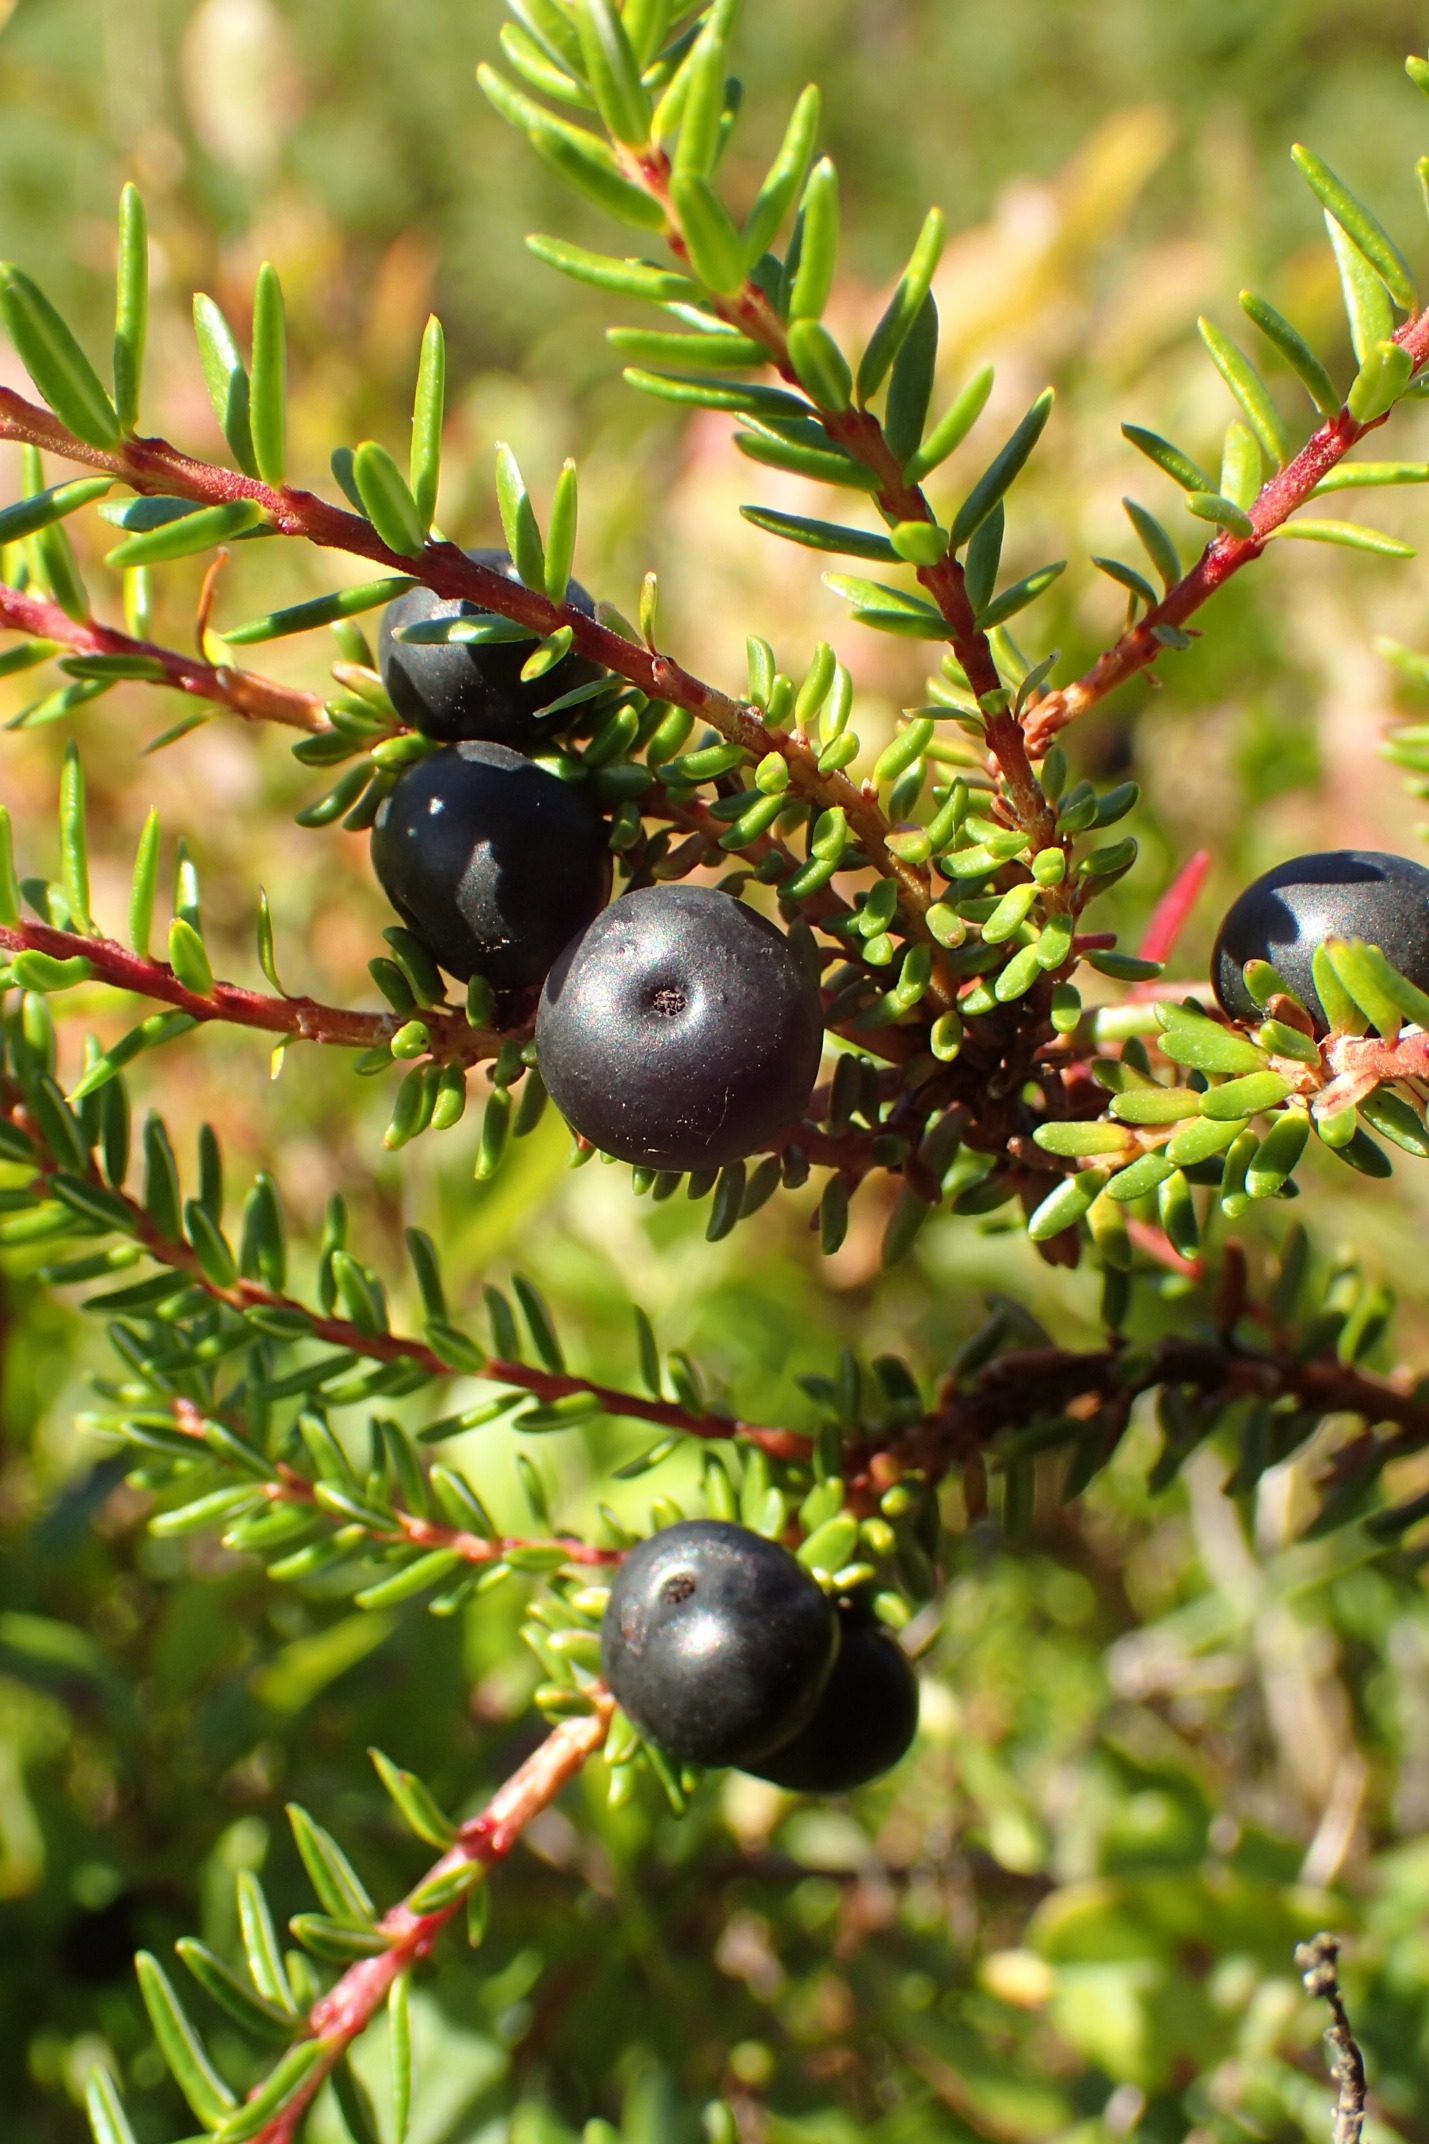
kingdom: Plantae
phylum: Tracheophyta
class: Magnoliopsida
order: Ericales
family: Ericaceae
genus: Empetrum
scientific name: Empetrum nigrum
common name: Revling
